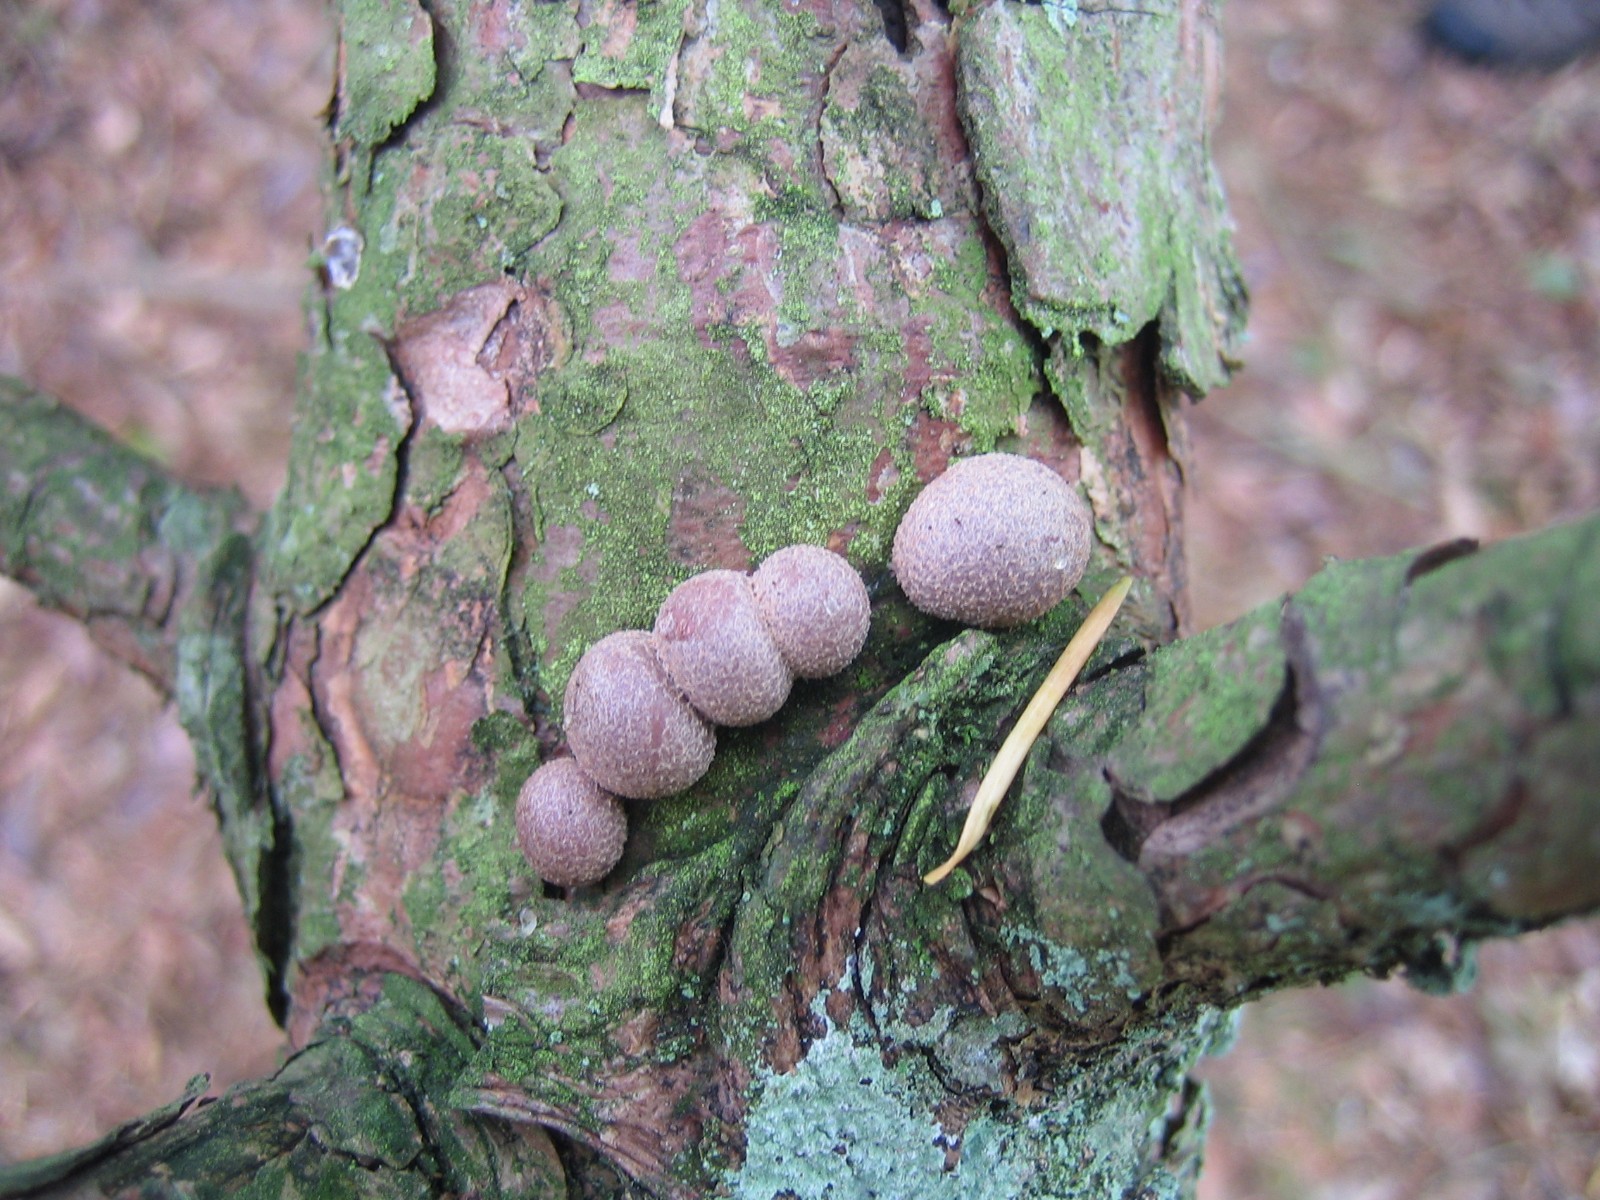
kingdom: Protozoa
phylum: Mycetozoa
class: Myxomycetes
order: Cribrariales
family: Tubiferaceae
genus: Lycogala
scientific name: Lycogala epidendrum
